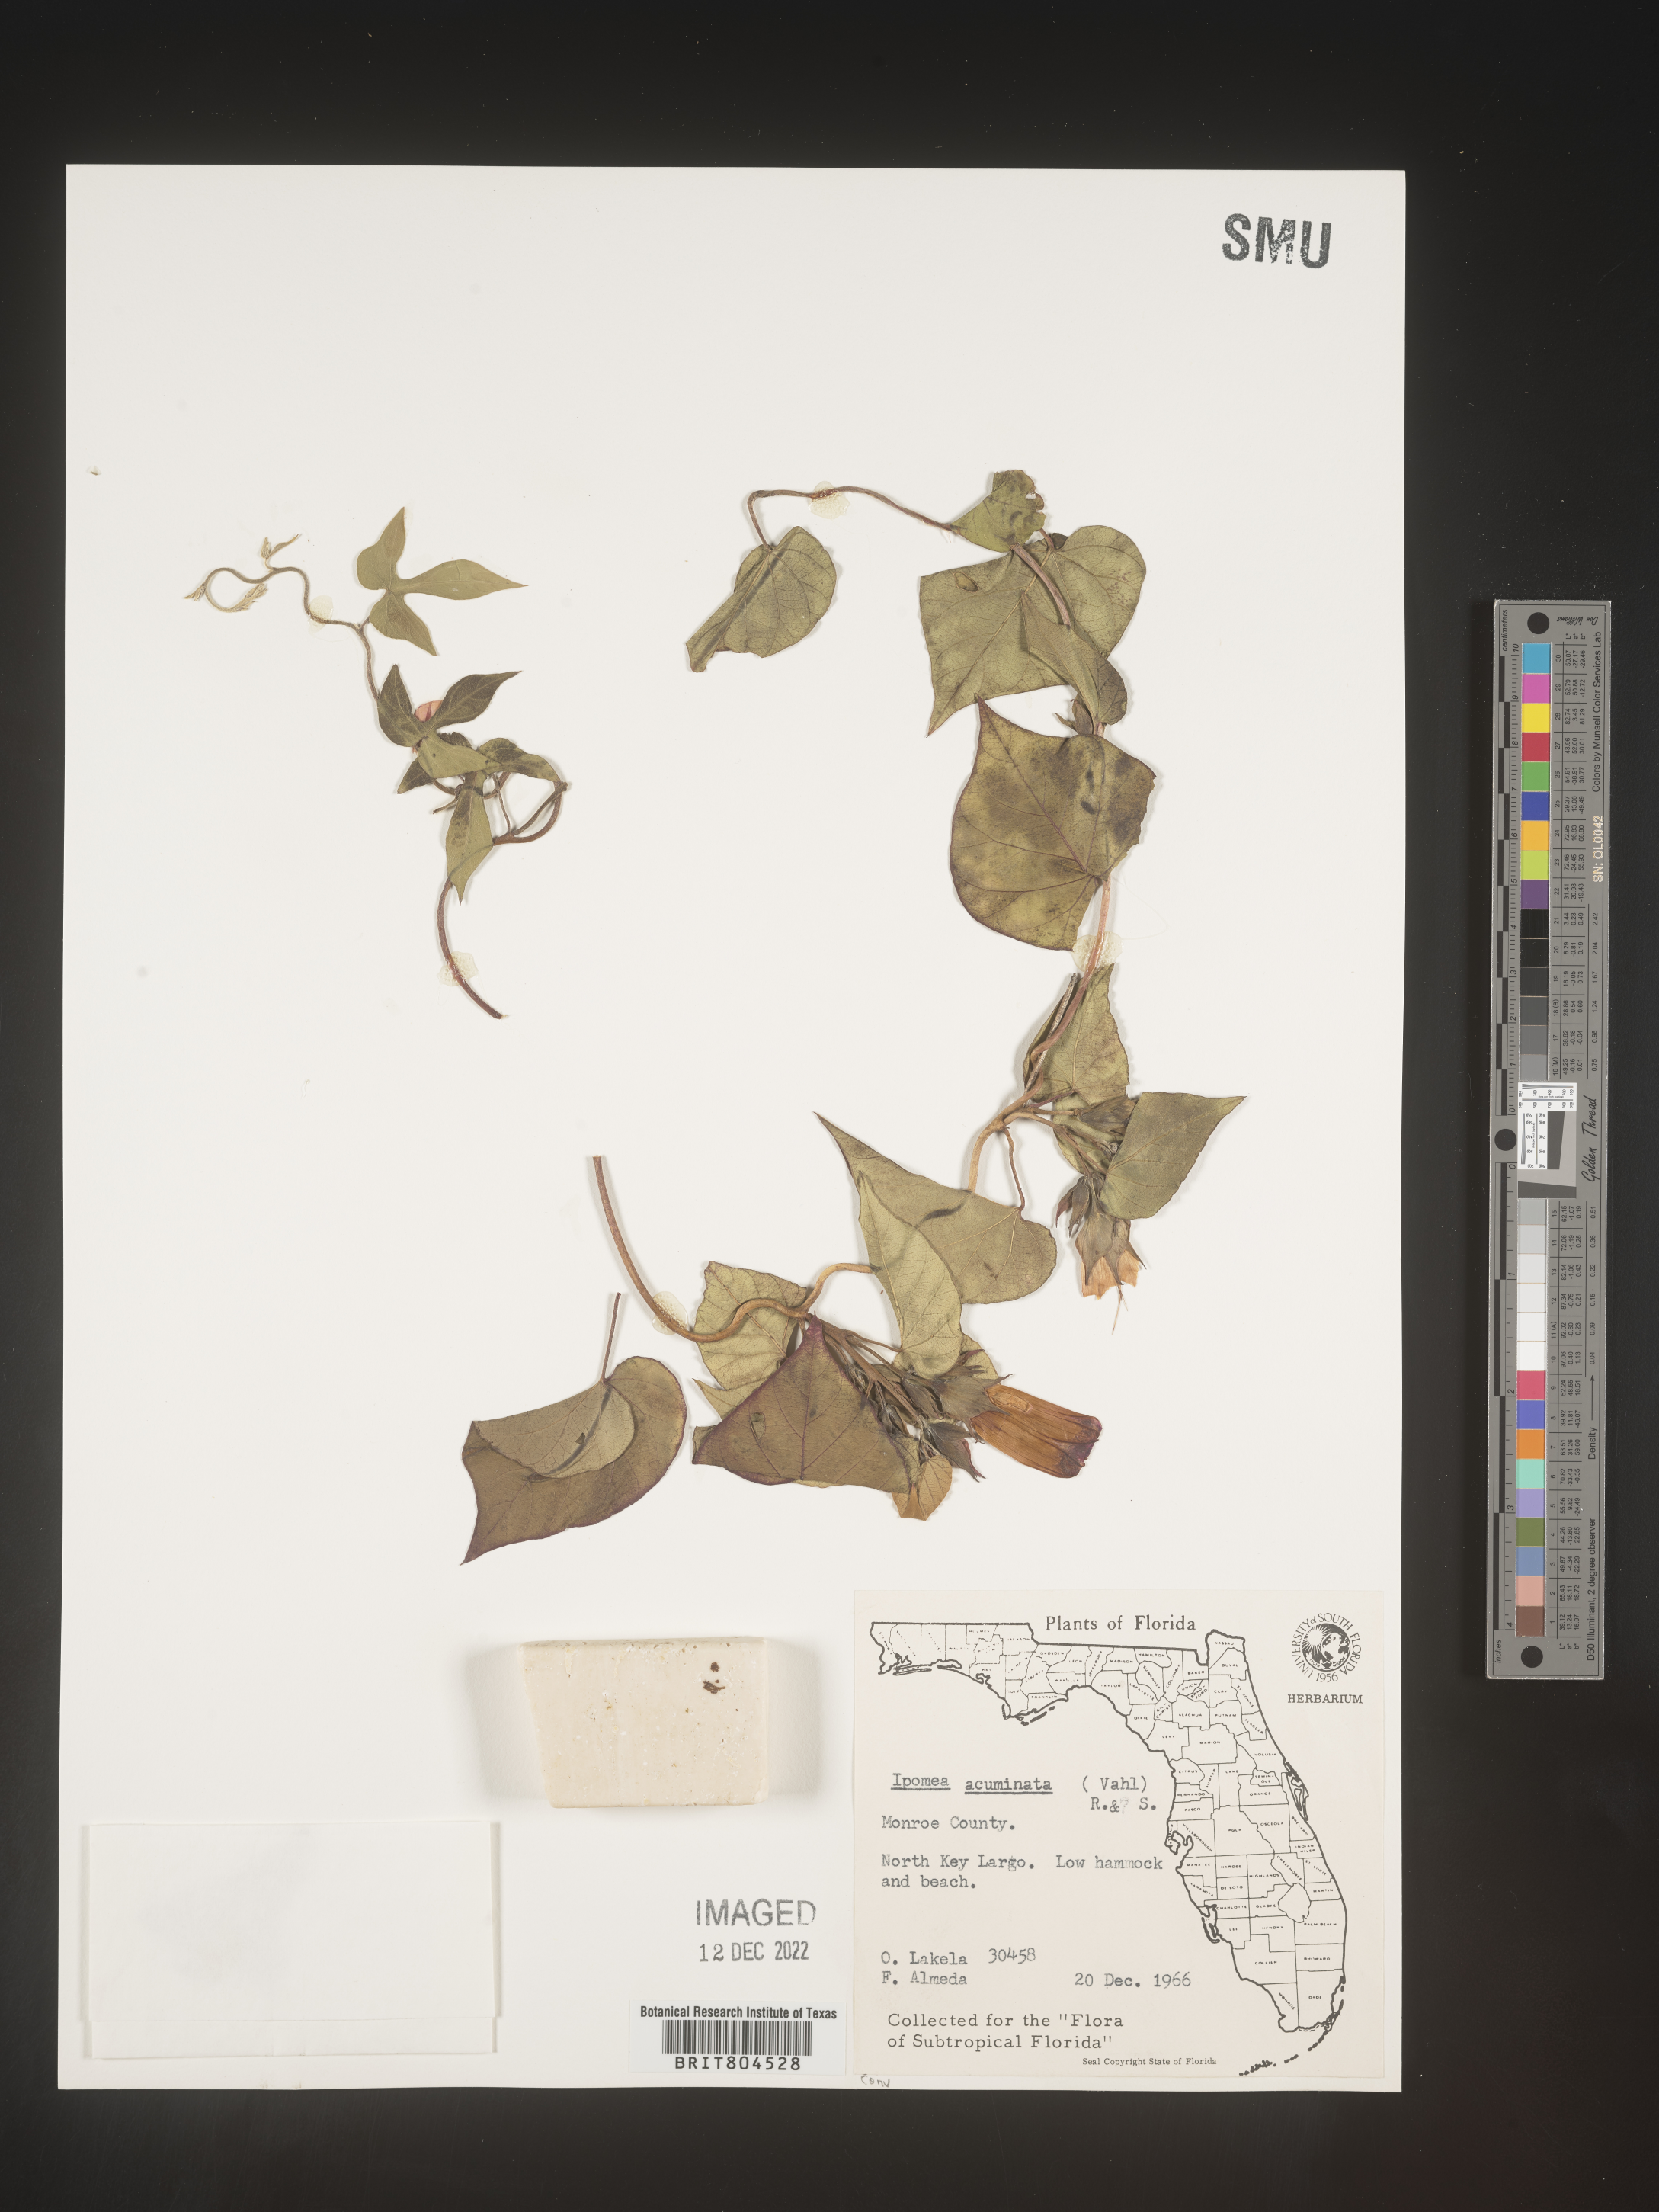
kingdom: Plantae
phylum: Tracheophyta
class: Magnoliopsida
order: Solanales
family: Convolvulaceae
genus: Ipomoea
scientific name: Ipomoea coccinea
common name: Red morning-glory
